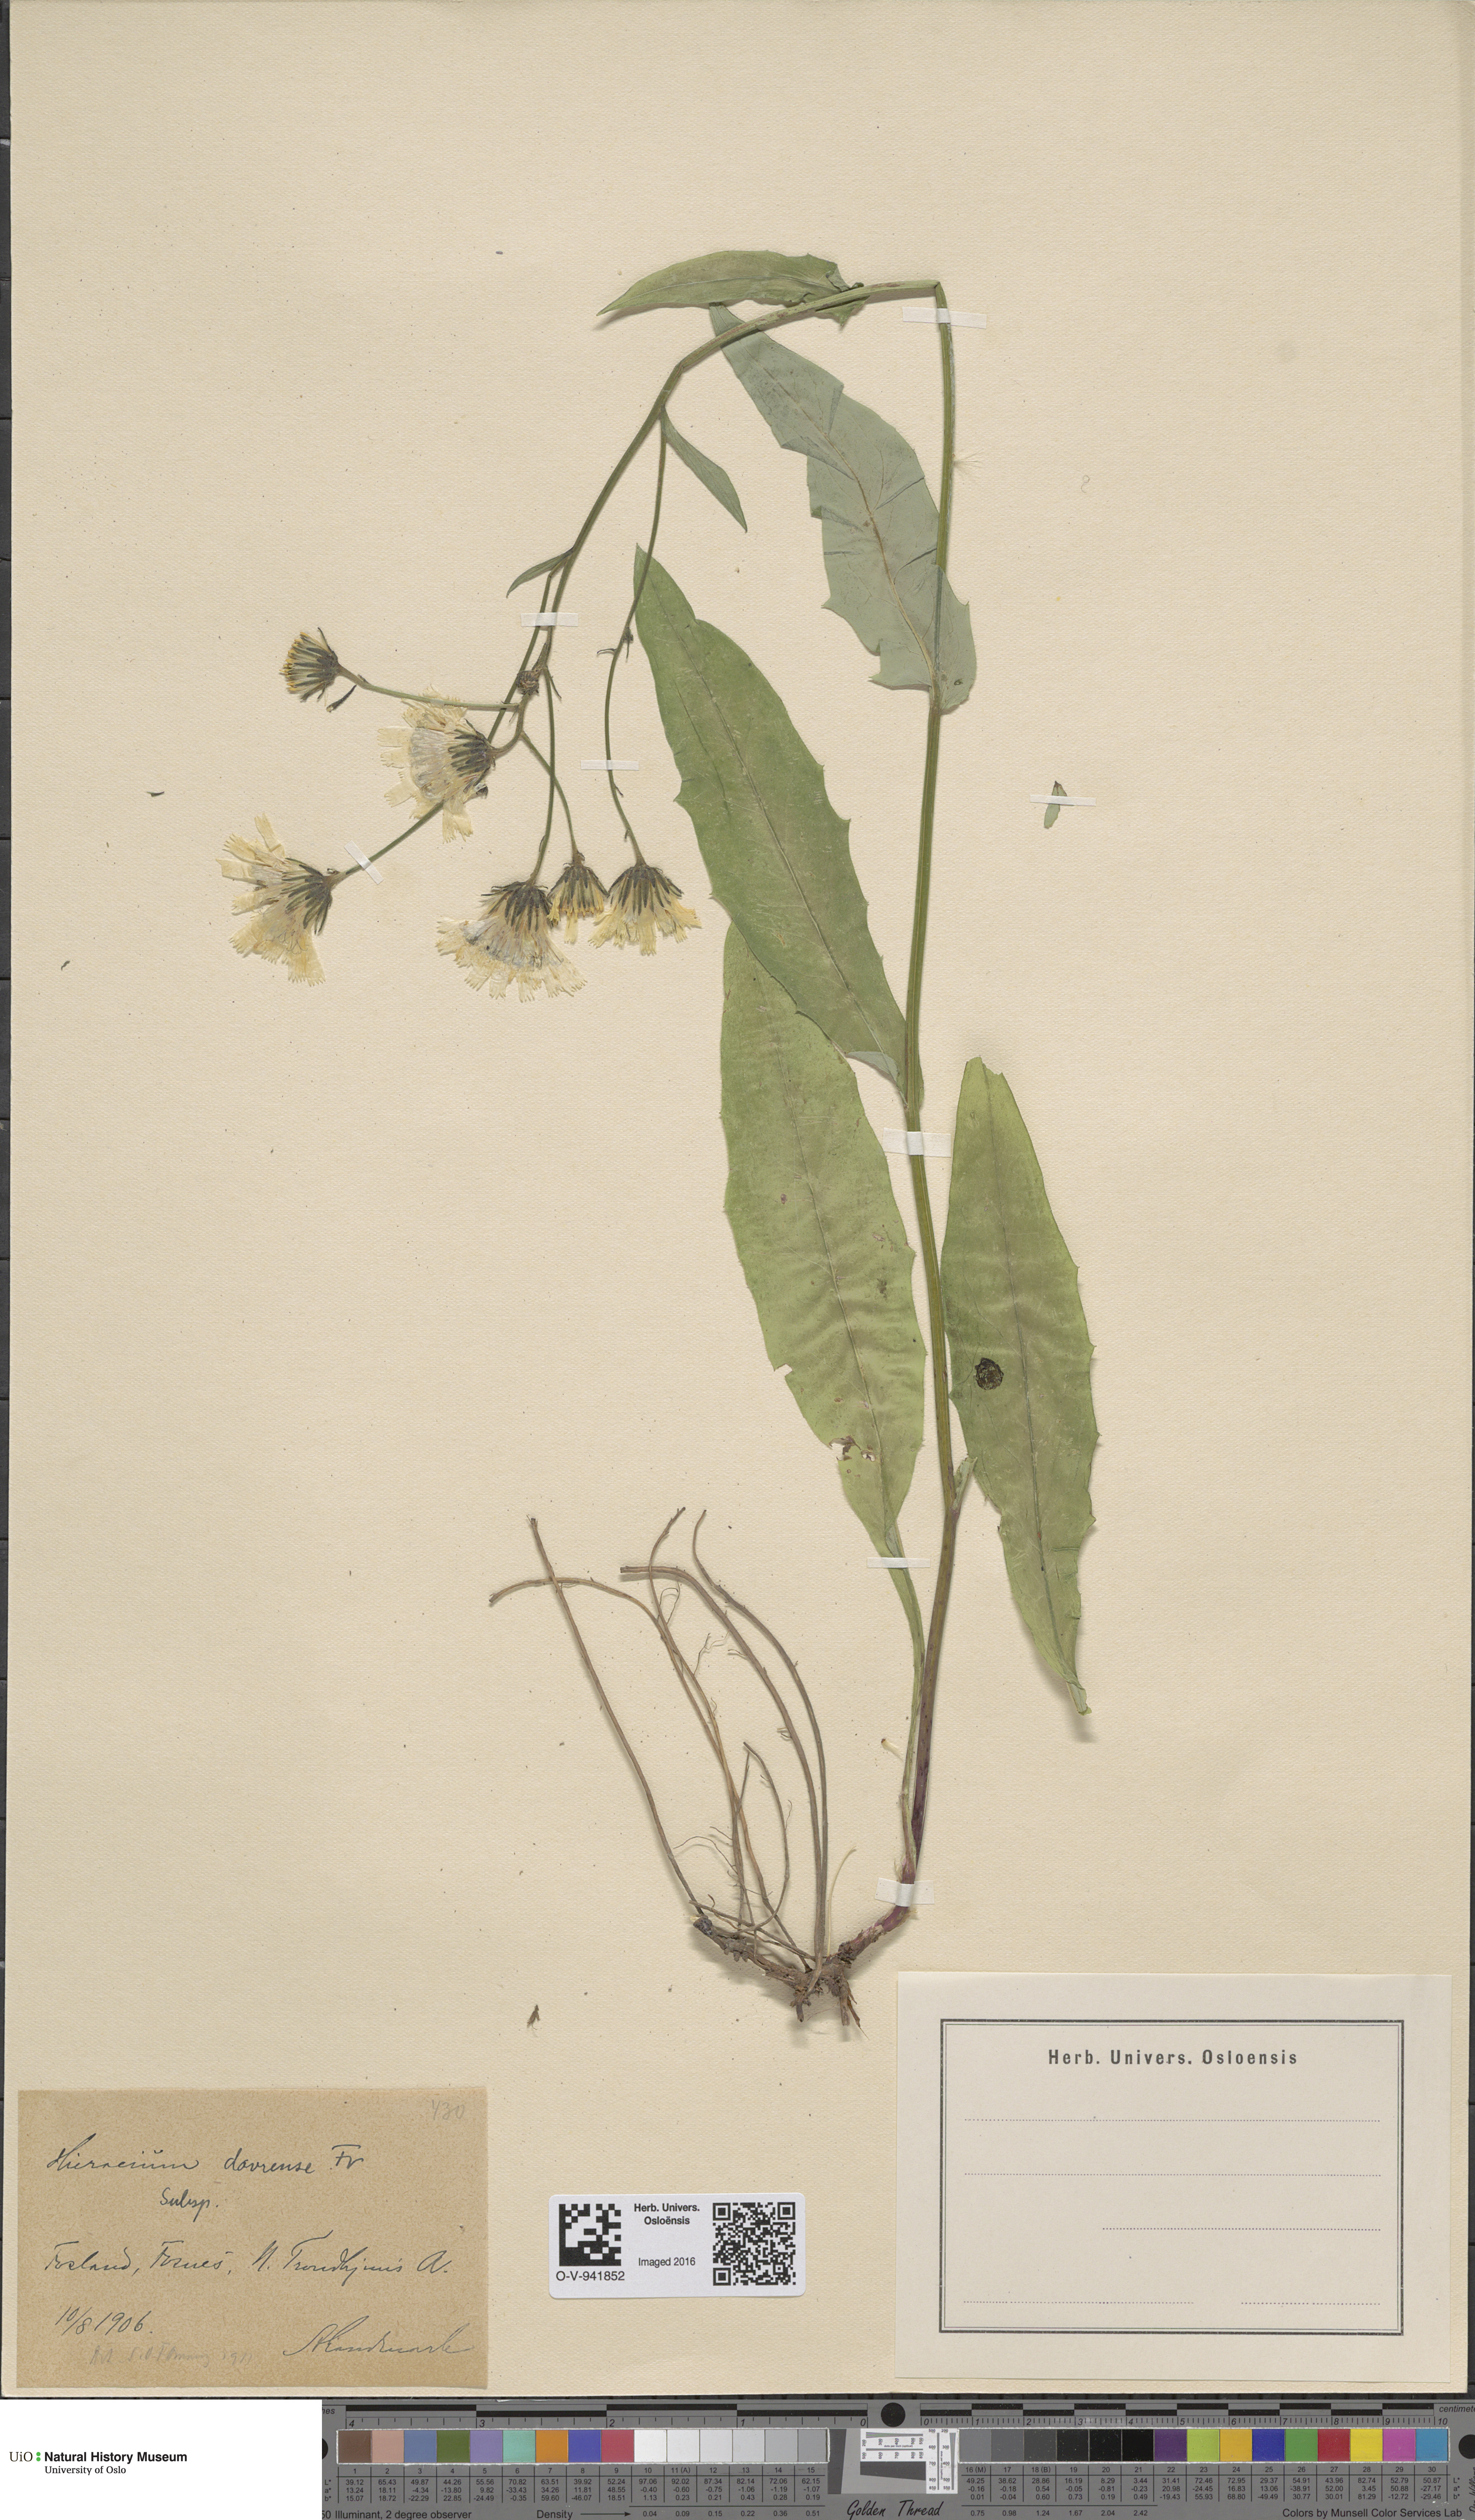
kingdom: Plantae
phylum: Tracheophyta
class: Magnoliopsida
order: Asterales
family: Asteraceae
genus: Hieracium
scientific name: Hieracium dovrense
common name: Dovre hawkweed
